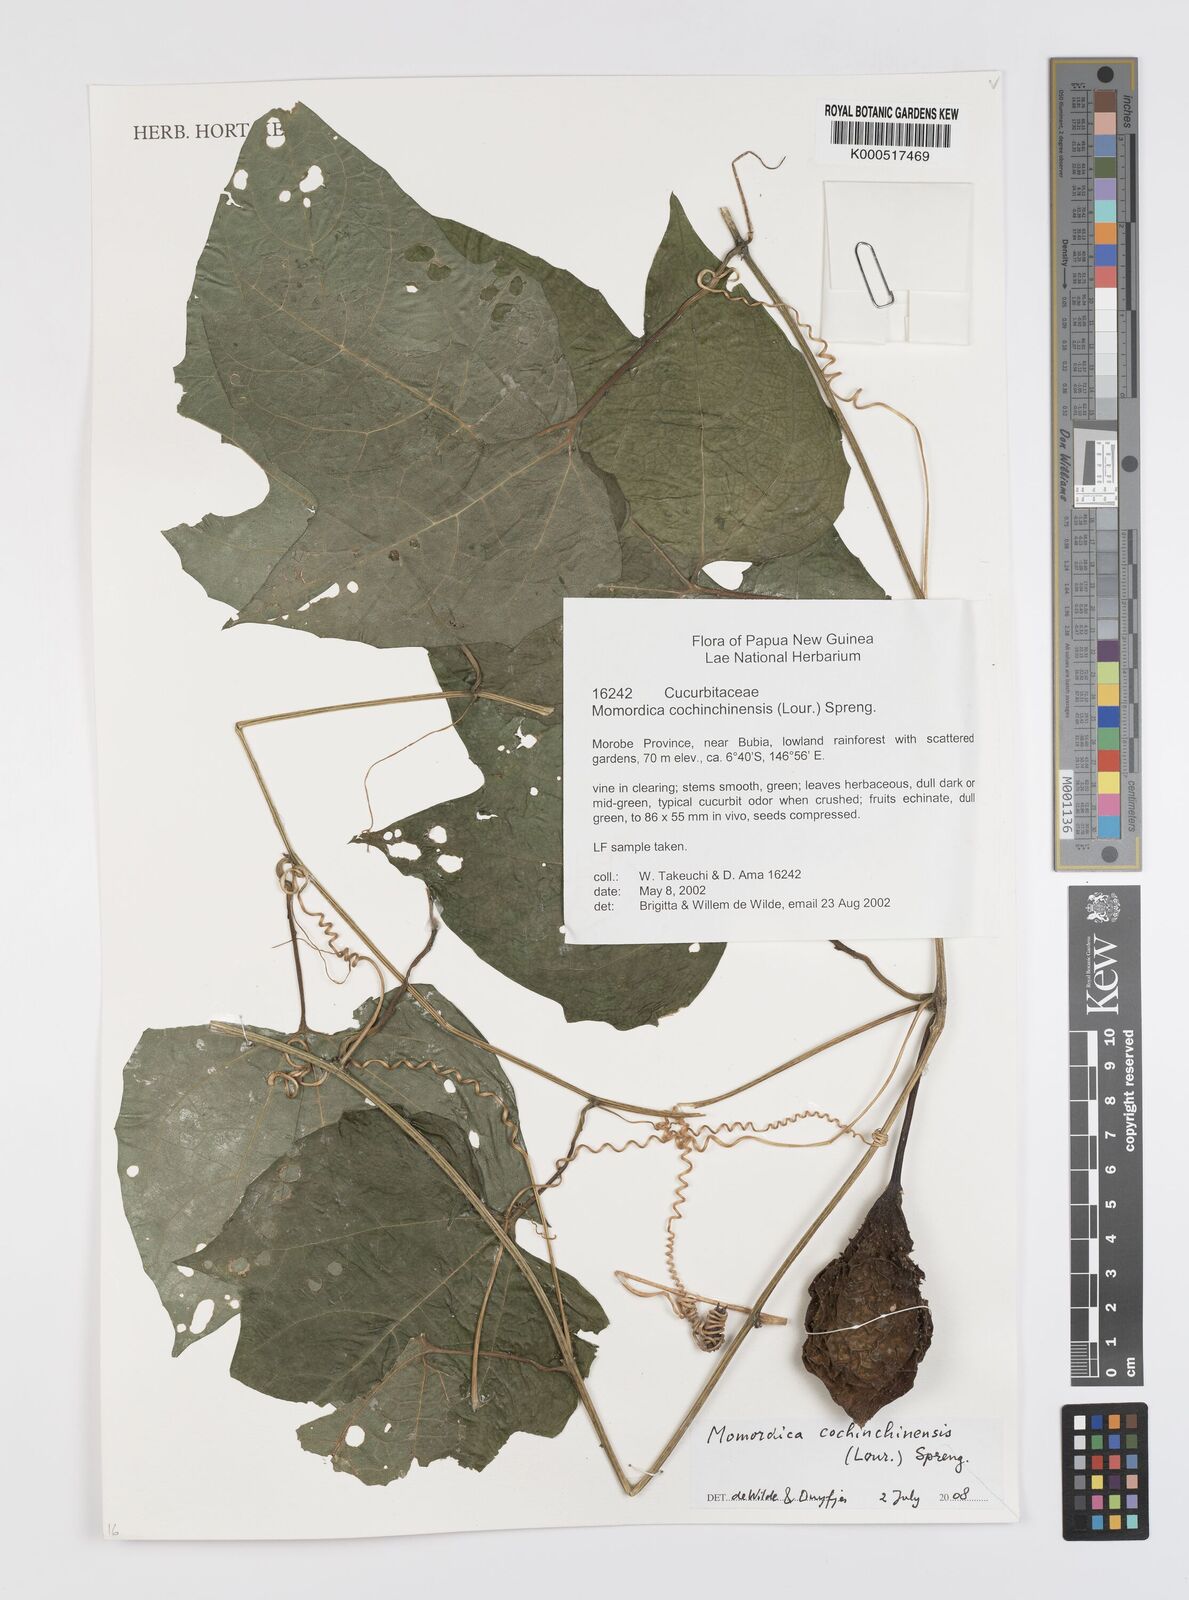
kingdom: Plantae
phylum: Tracheophyta
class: Magnoliopsida
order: Cucurbitales
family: Cucurbitaceae
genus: Momordica
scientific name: Momordica cochinchinensis
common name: Chinese bitter-cucumber
